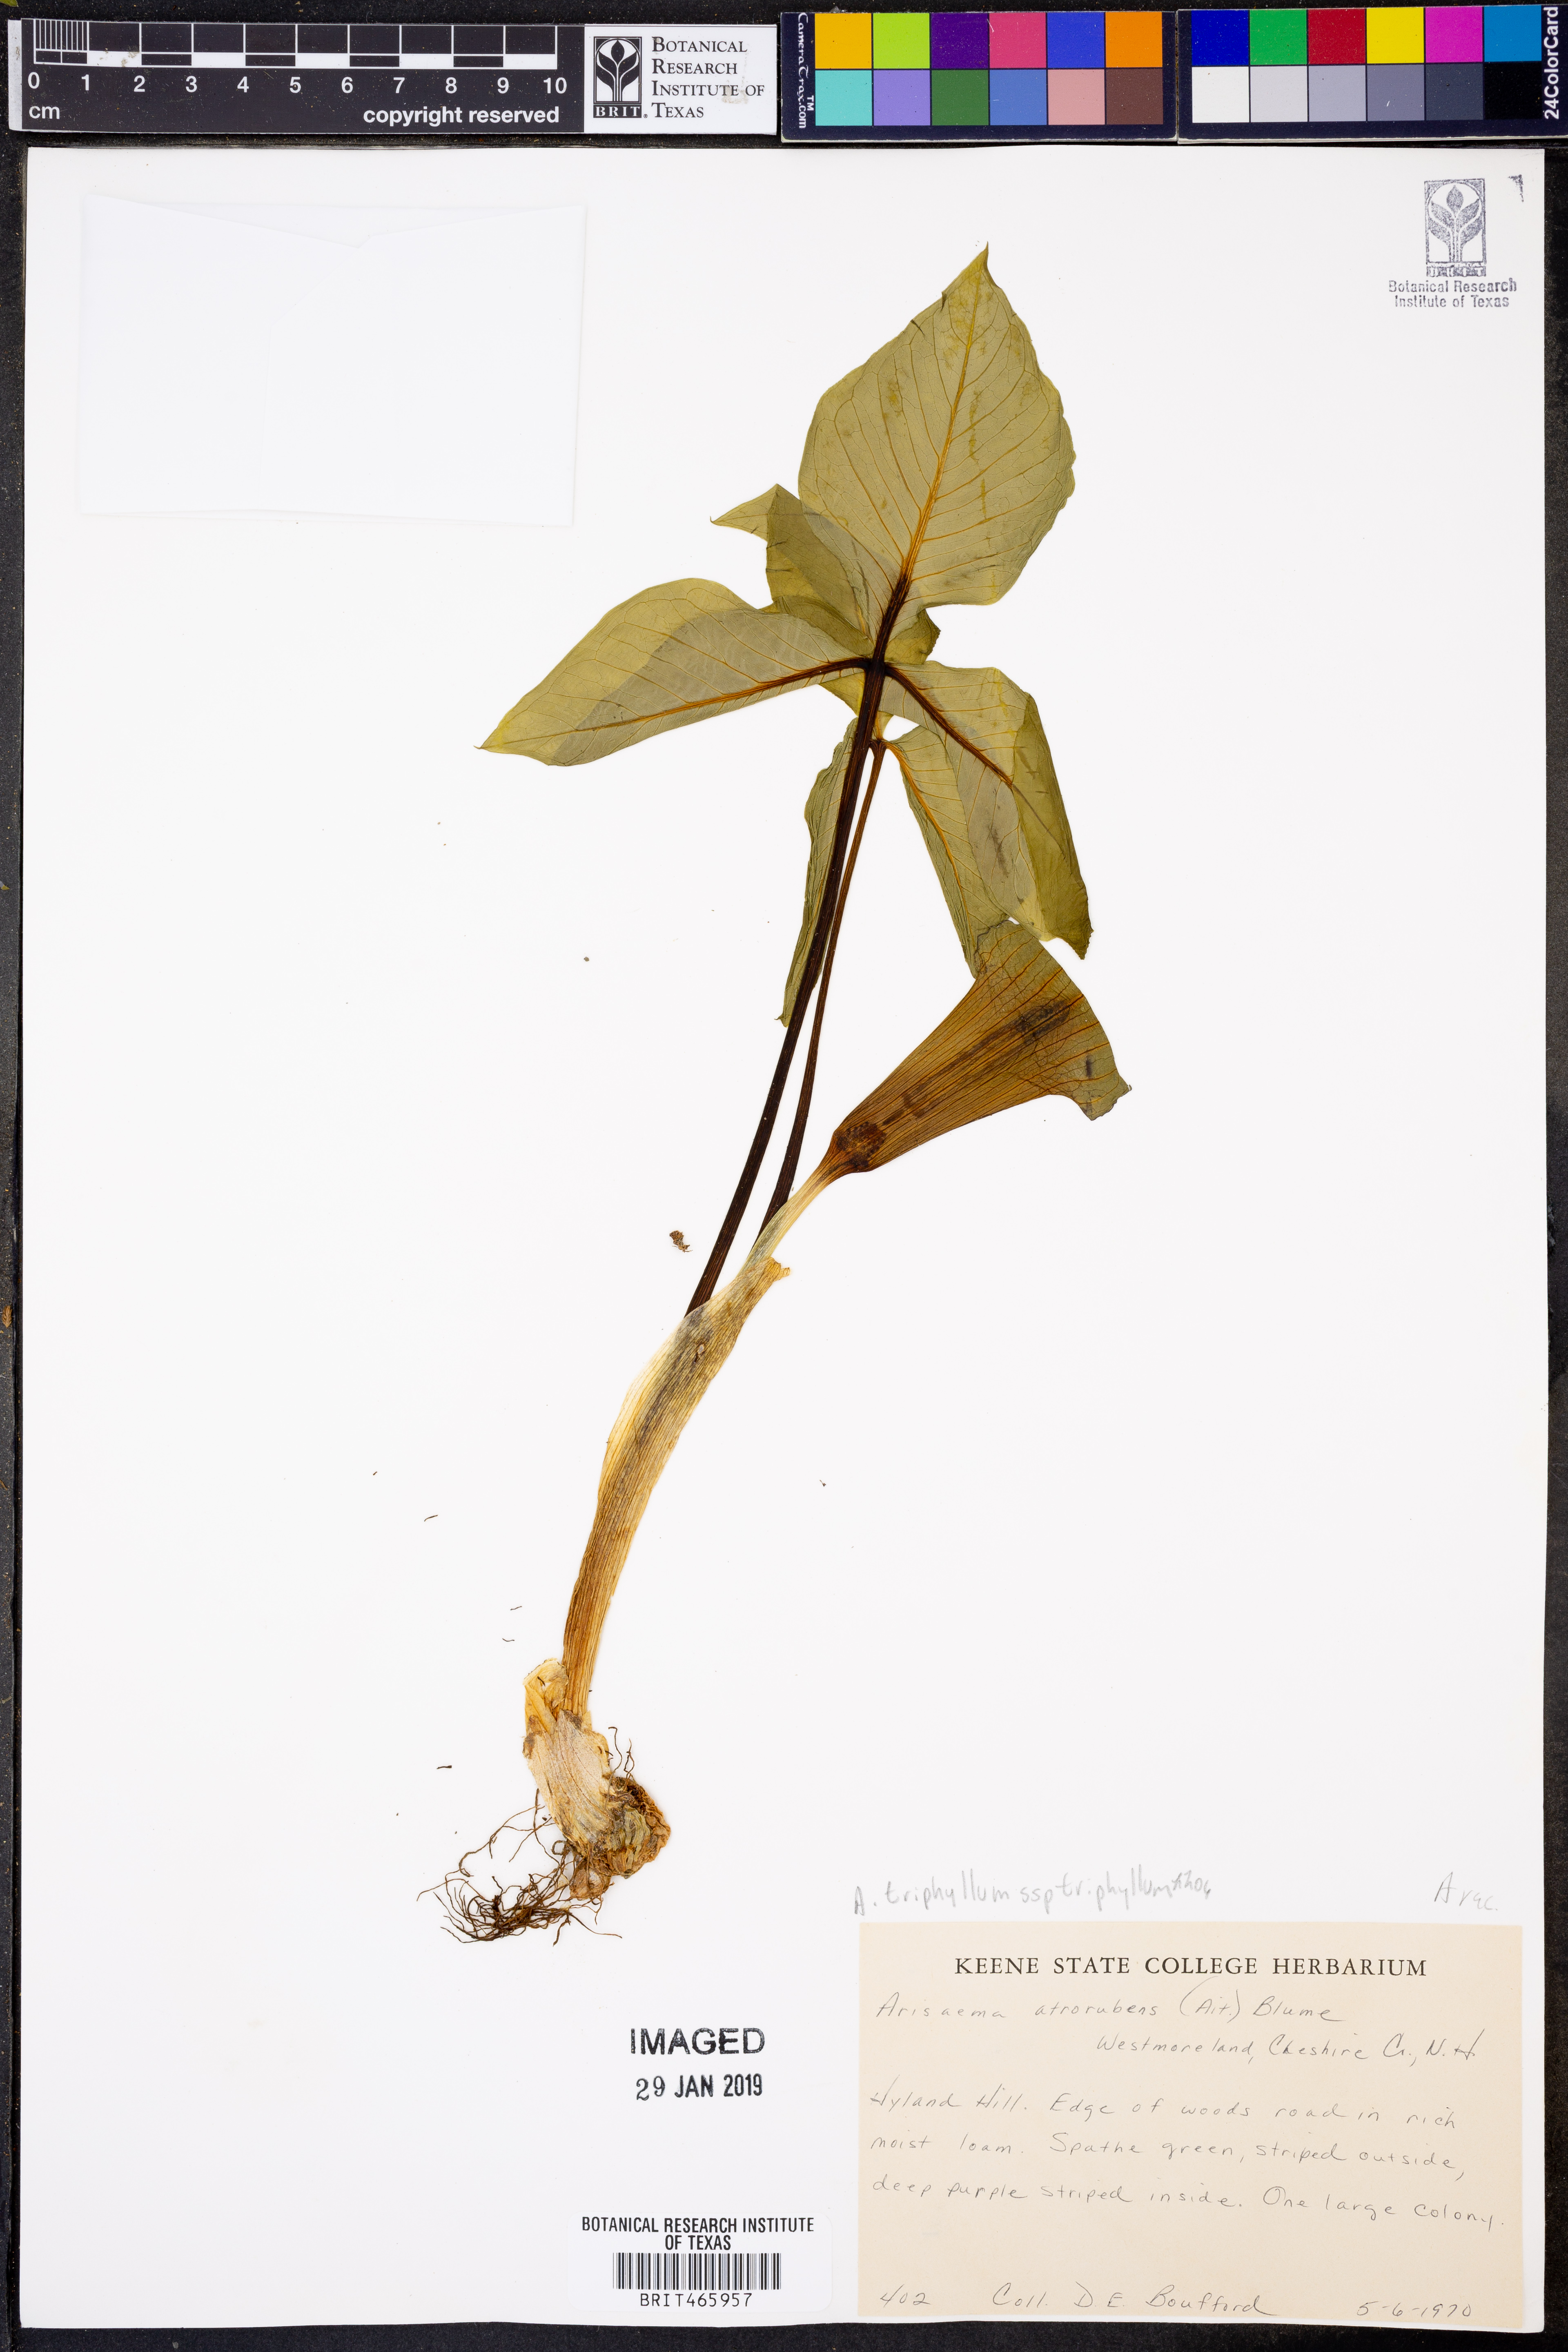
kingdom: Plantae
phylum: Tracheophyta
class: Liliopsida
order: Alismatales
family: Araceae
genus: Arisaema
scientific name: Arisaema triphyllum
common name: Jack-in-the-pulpit
